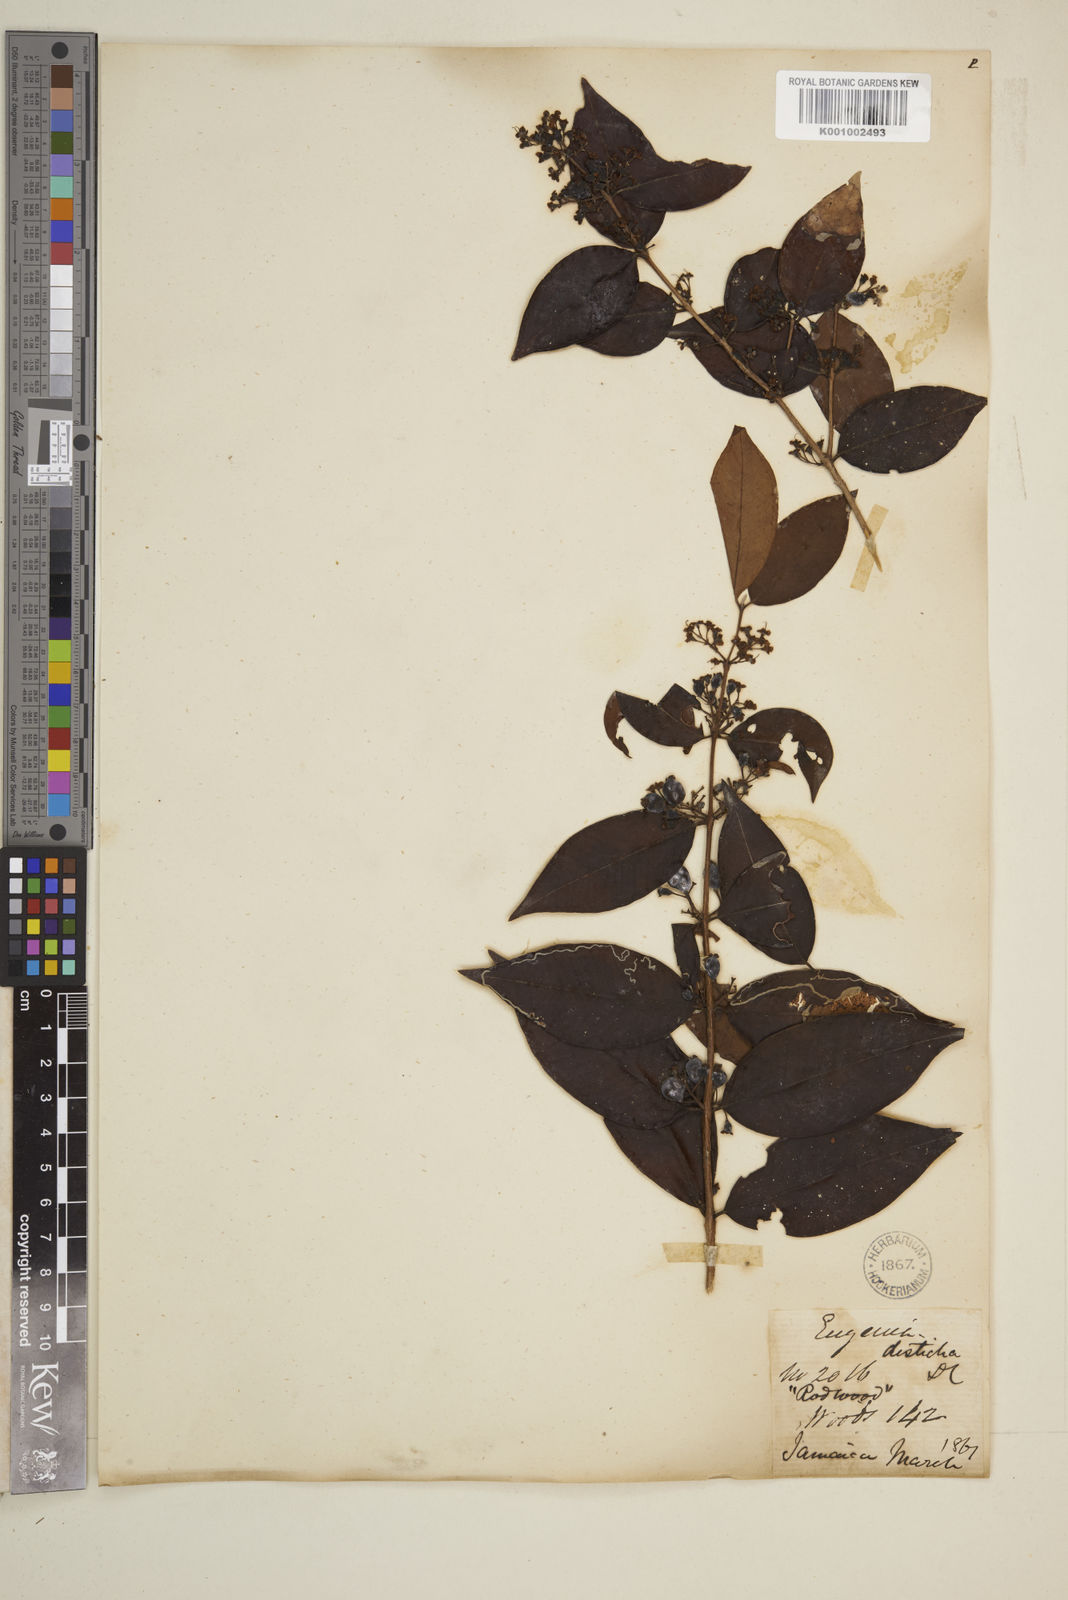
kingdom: Plantae
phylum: Tracheophyta
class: Magnoliopsida
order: Myrtales
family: Myrtaceae
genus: Eugenia
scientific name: Eugenia disticha
